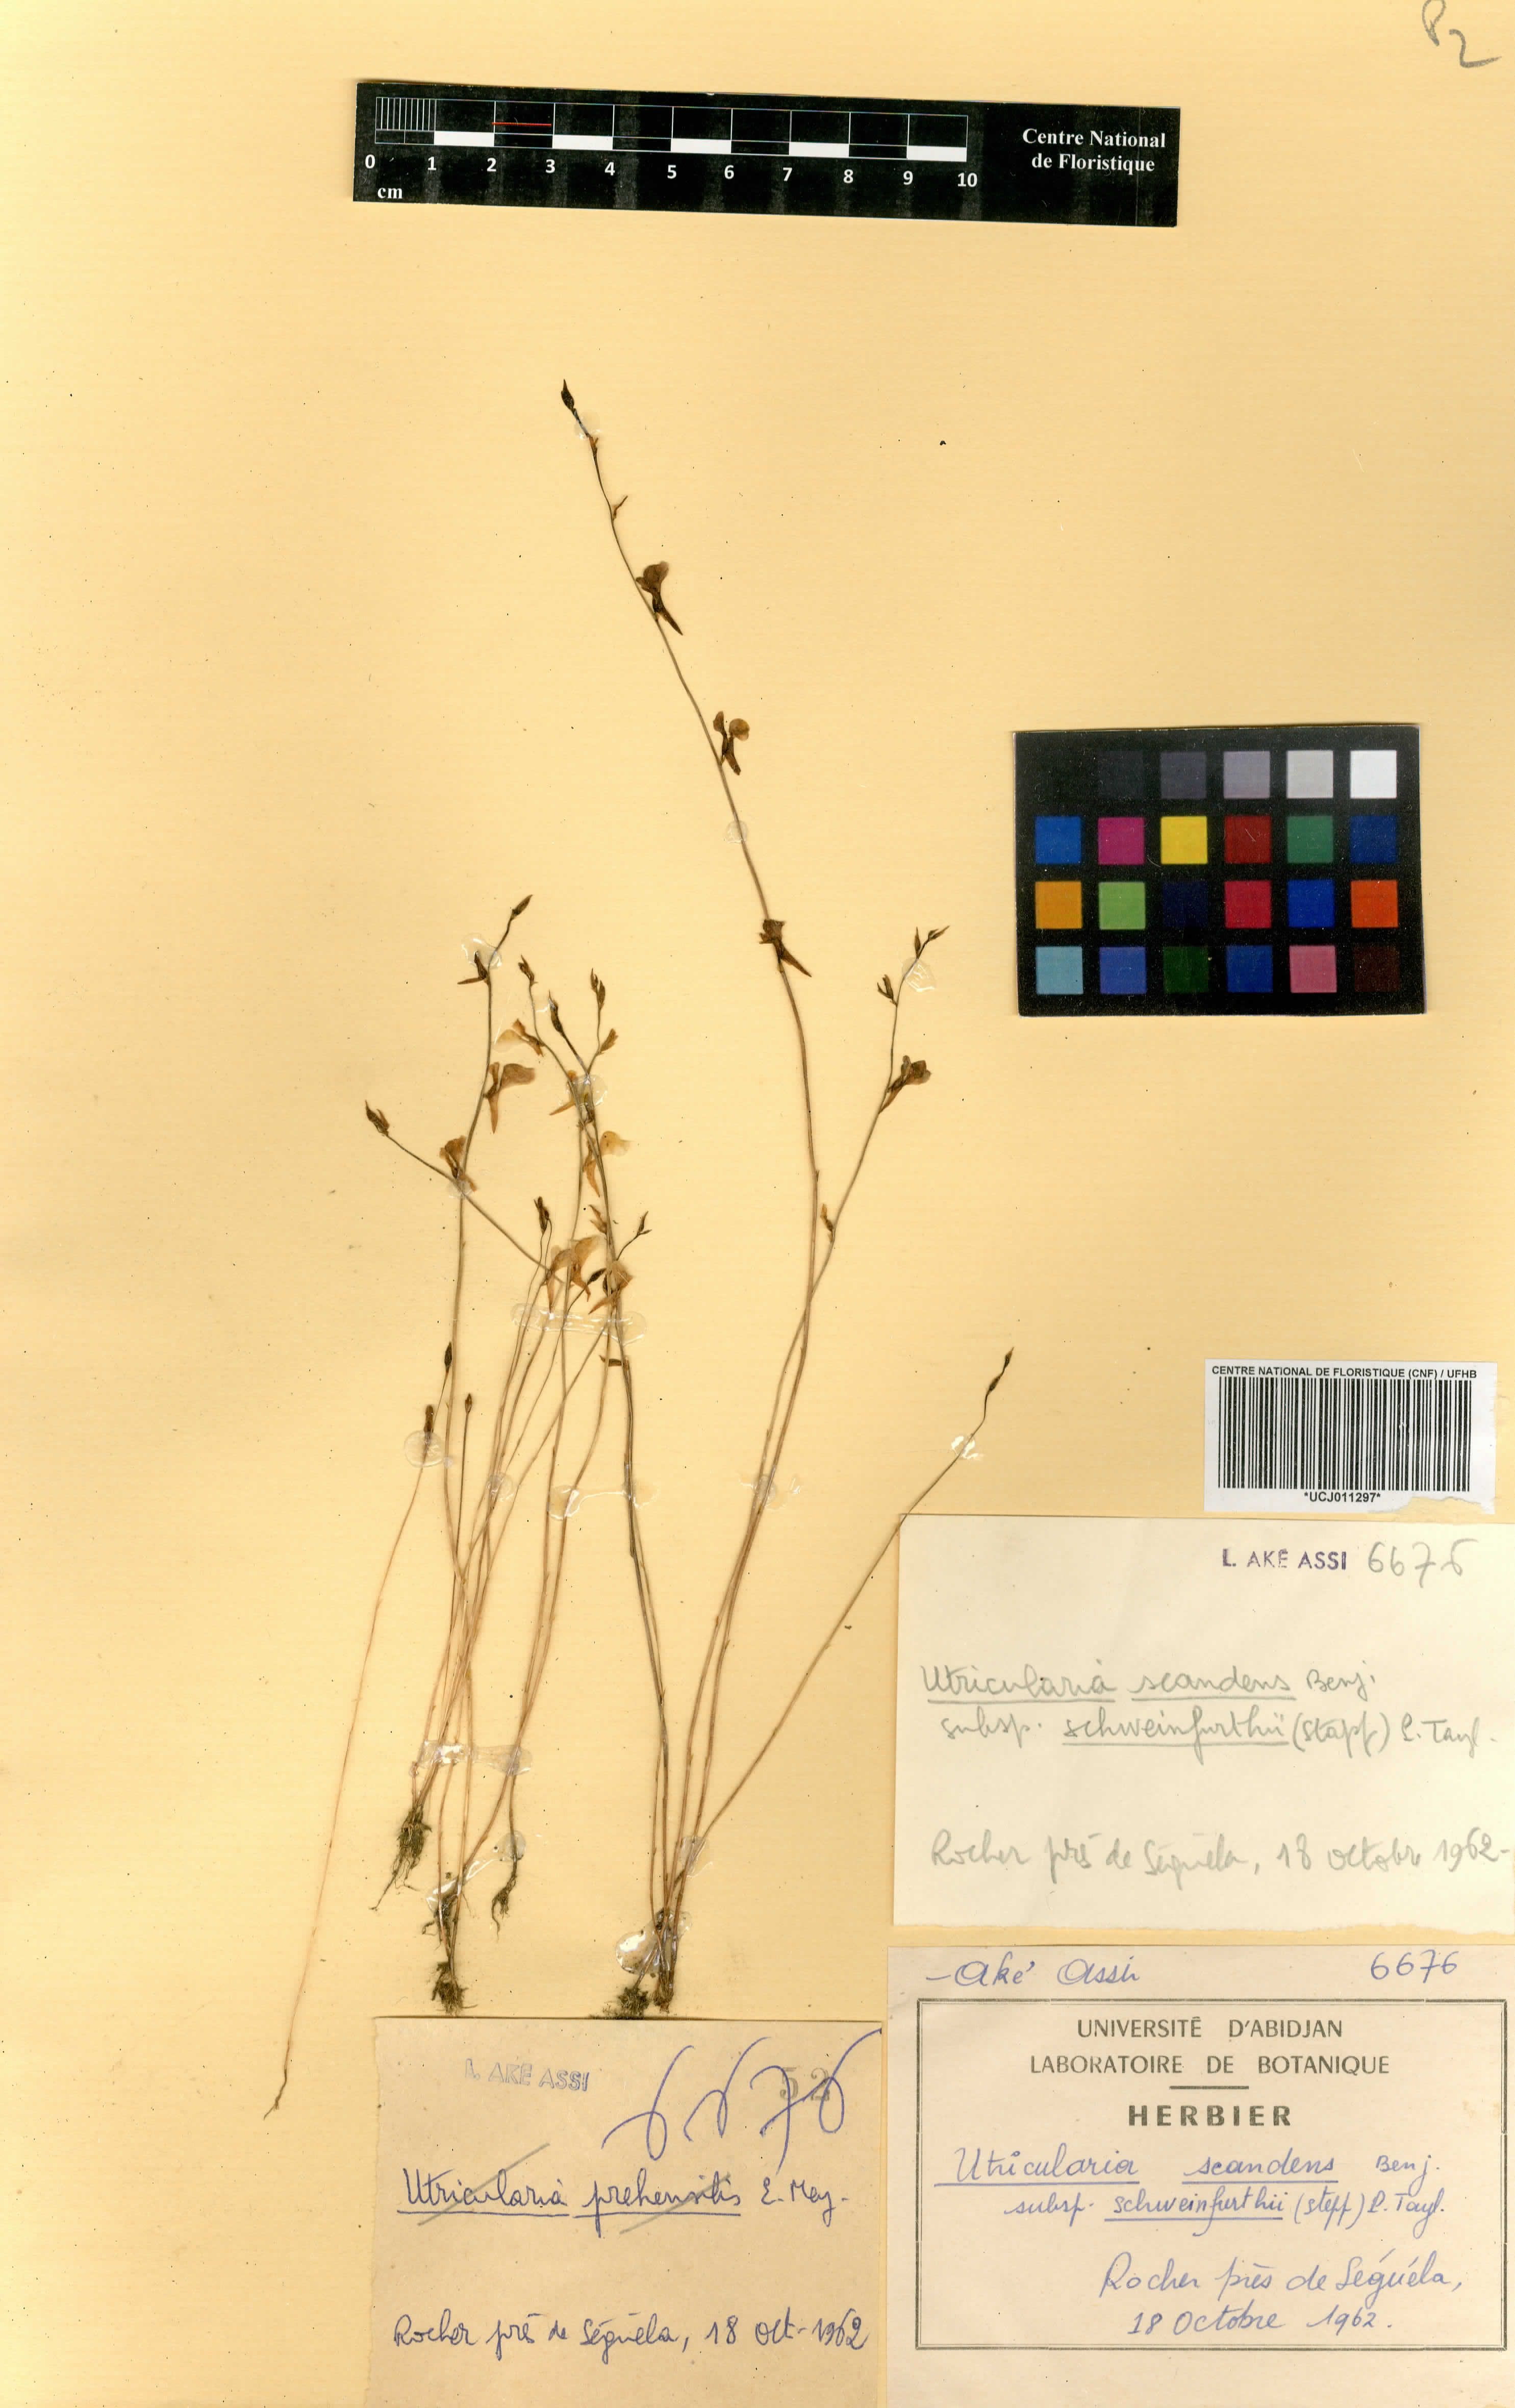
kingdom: Plantae
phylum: Tracheophyta
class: Magnoliopsida
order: Lamiales
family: Lentibulariaceae
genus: Utricularia
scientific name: Utricularia spiralis
